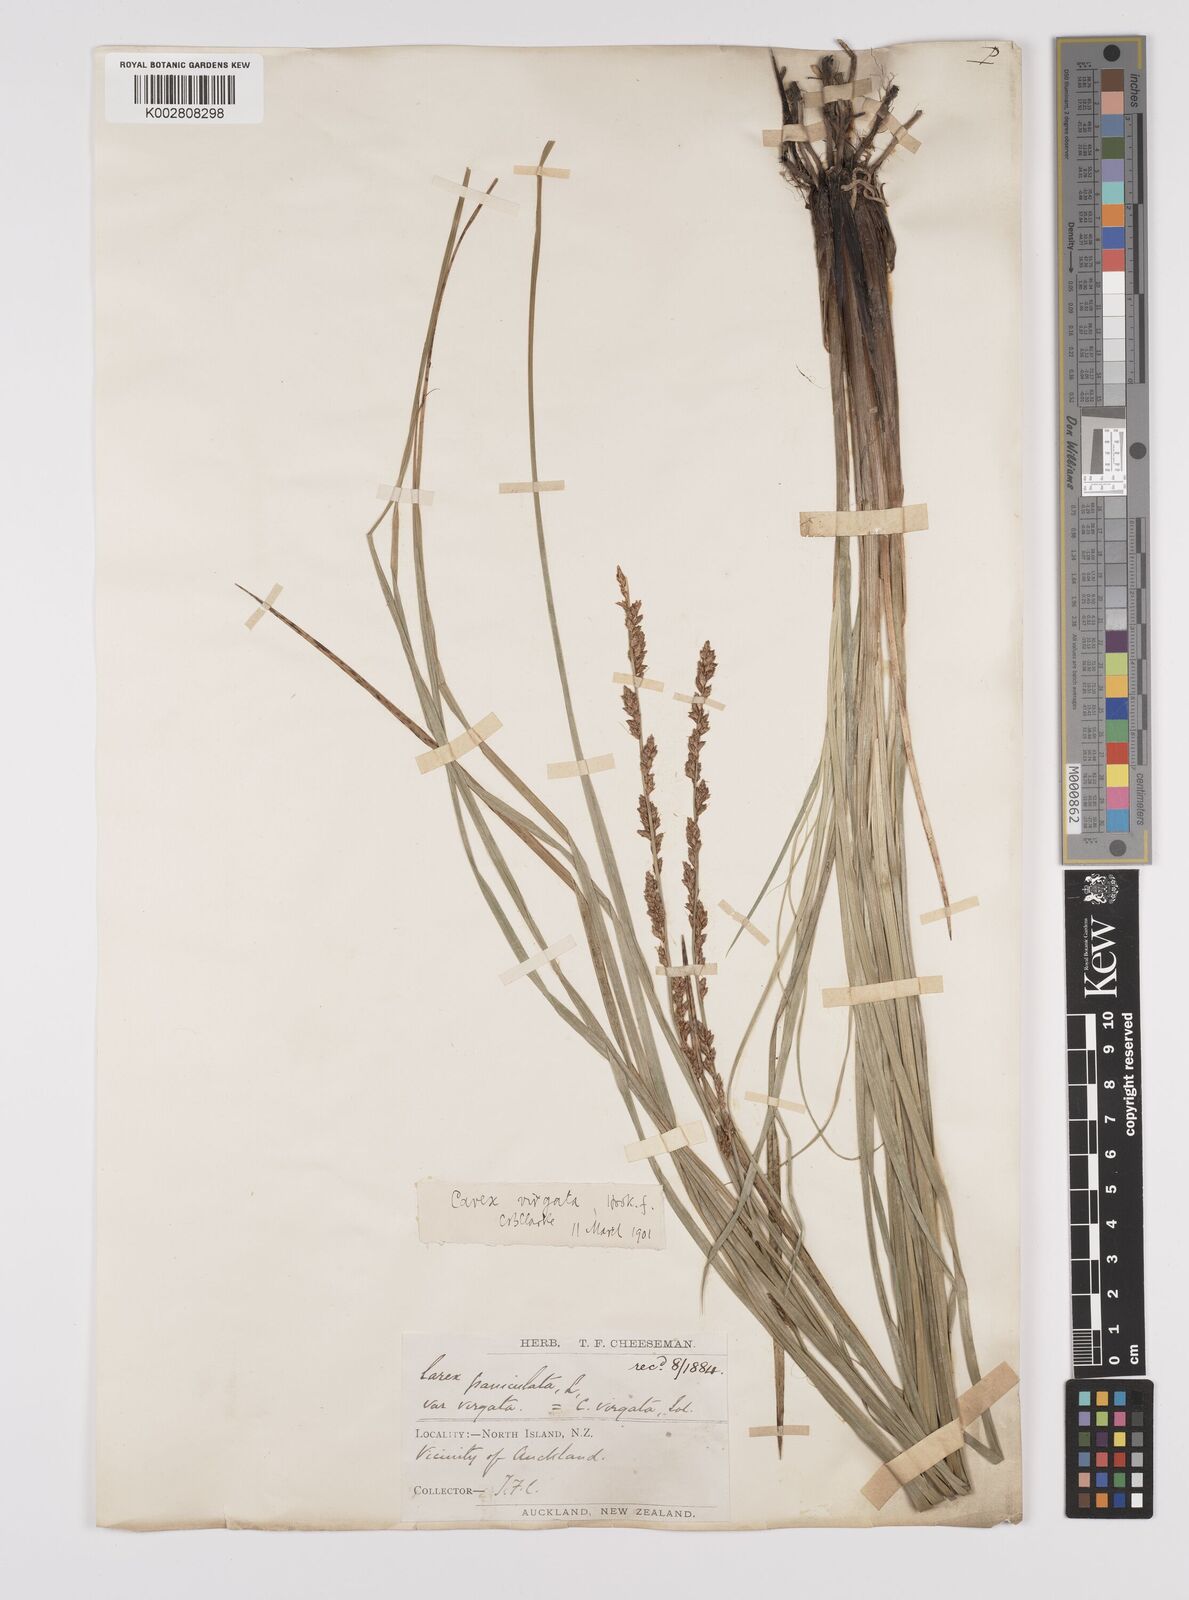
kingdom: Plantae
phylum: Tracheophyta
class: Liliopsida
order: Poales
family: Cyperaceae
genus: Carex
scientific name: Carex appressa
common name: Tussock sedge
